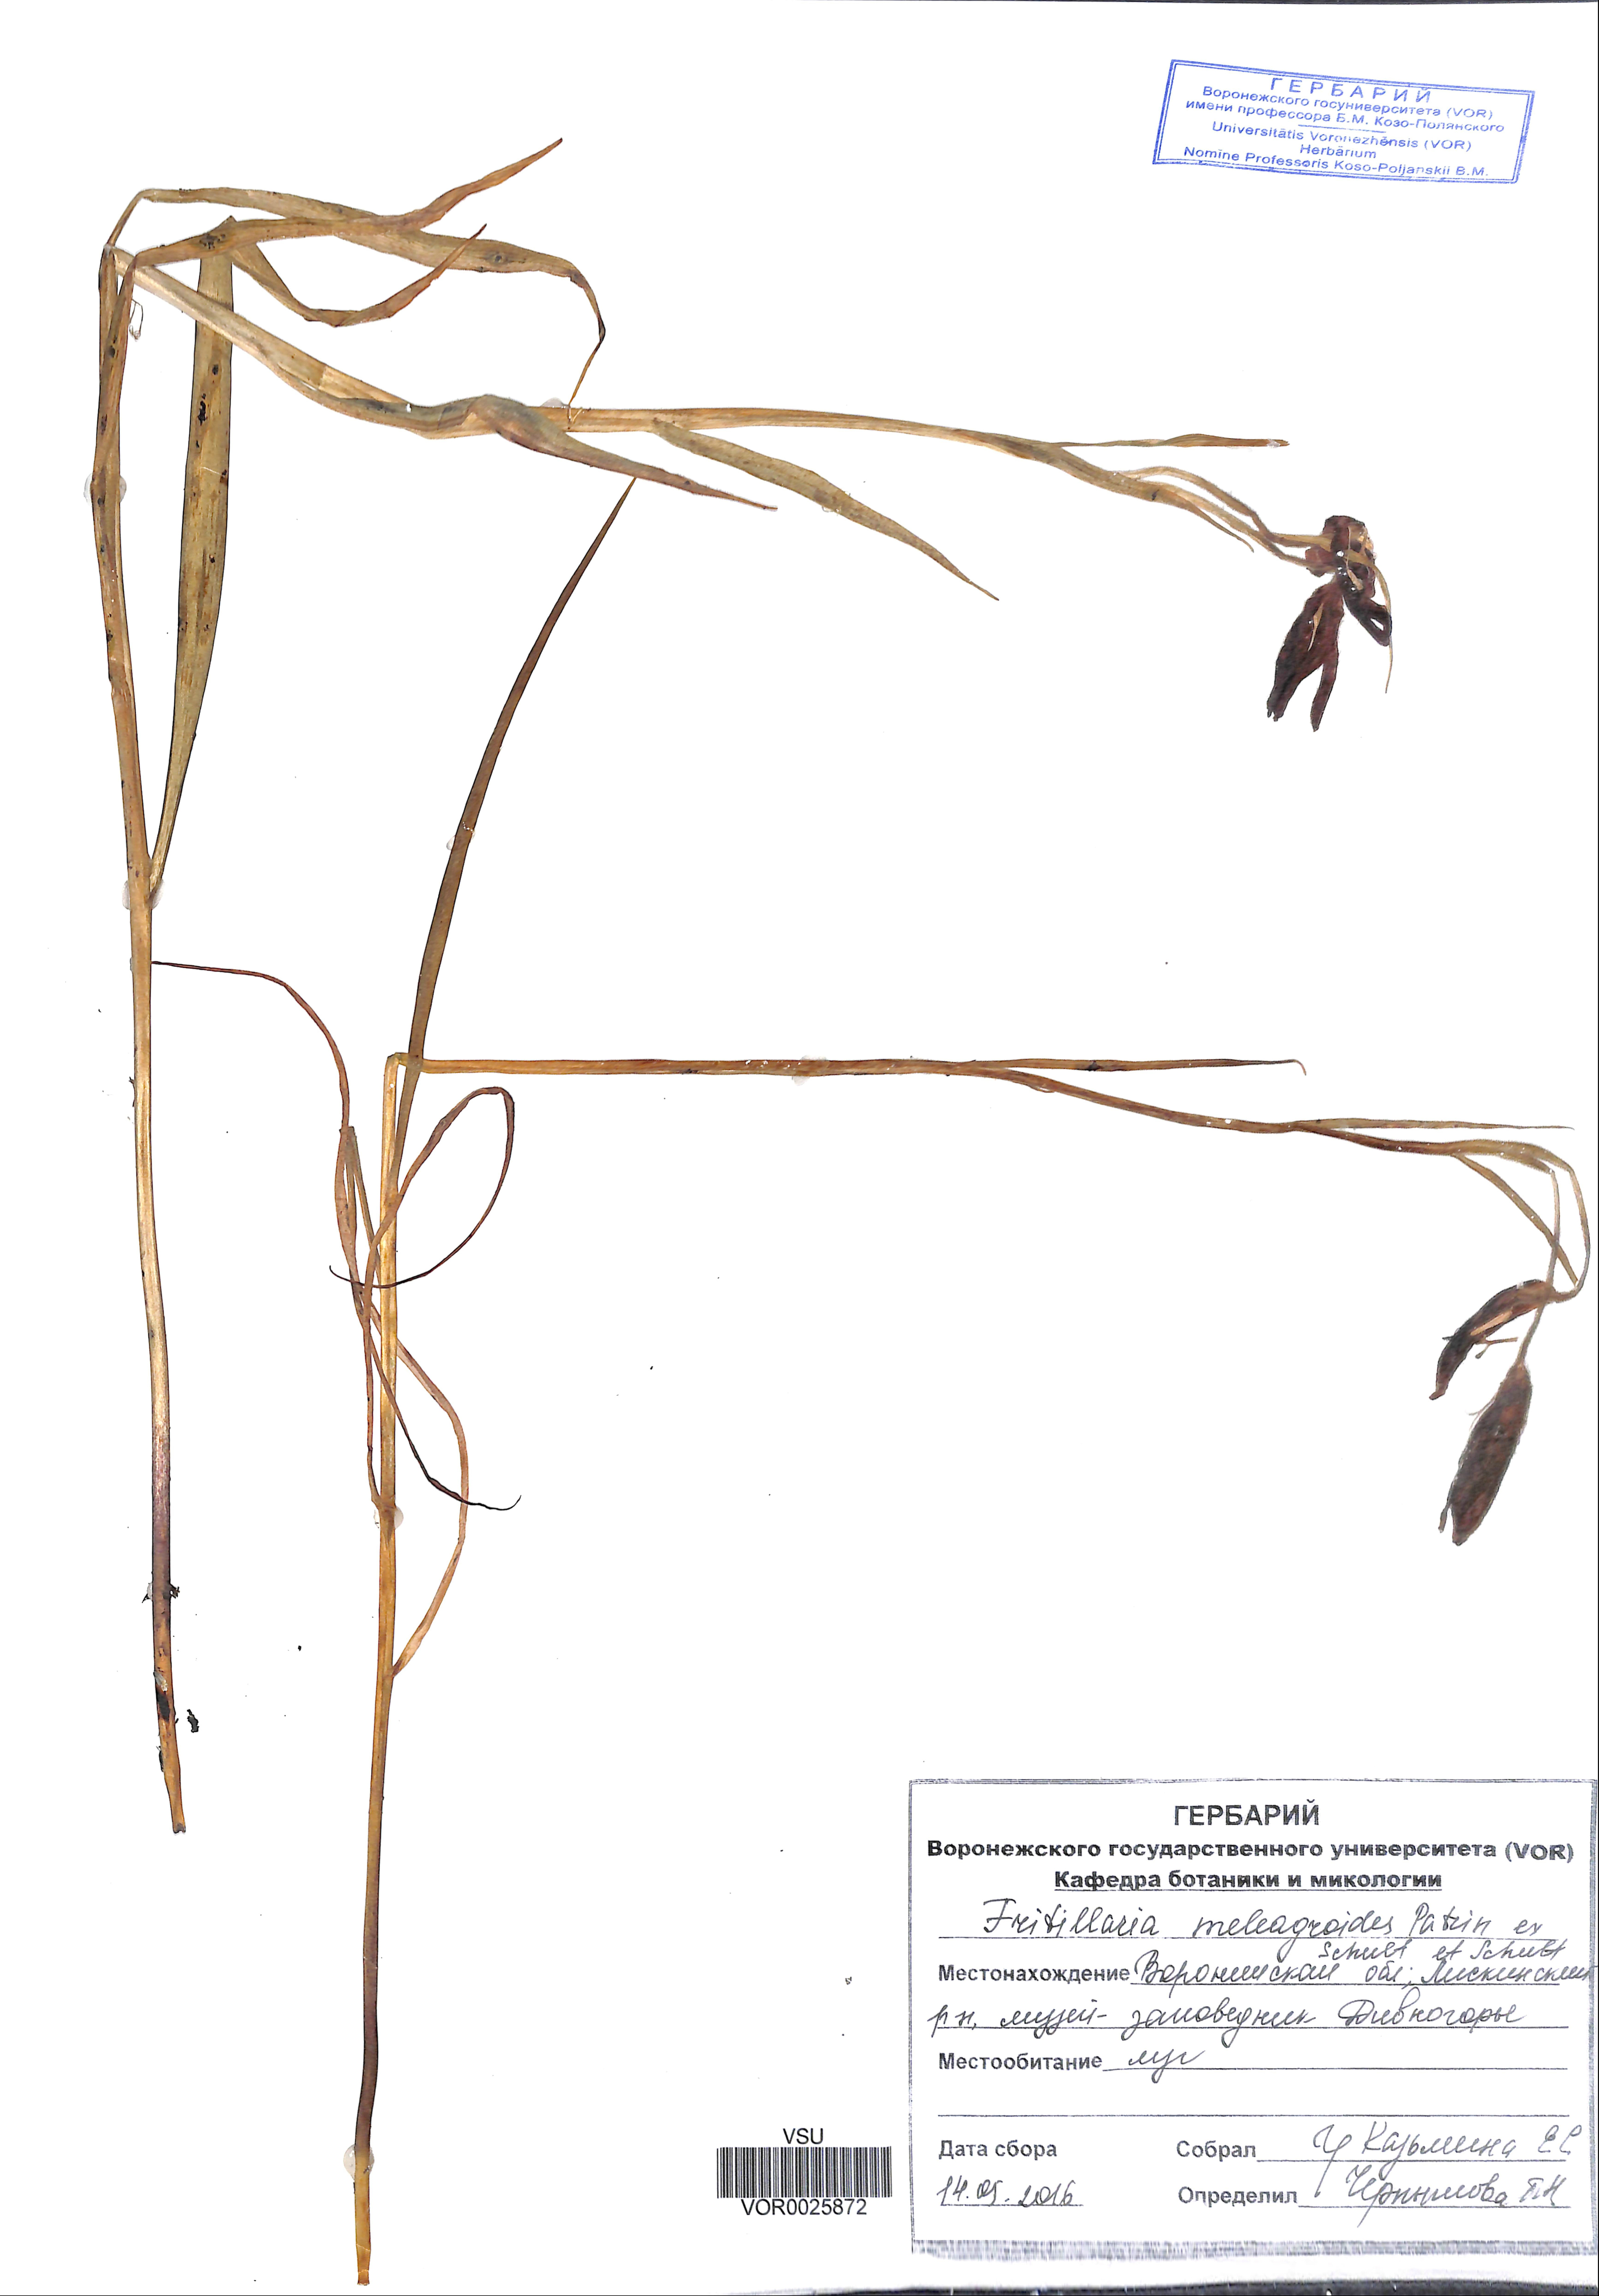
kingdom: Plantae
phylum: Tracheophyta
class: Liliopsida
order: Liliales
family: Liliaceae
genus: Fritillaria
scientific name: Fritillaria meleagroides
